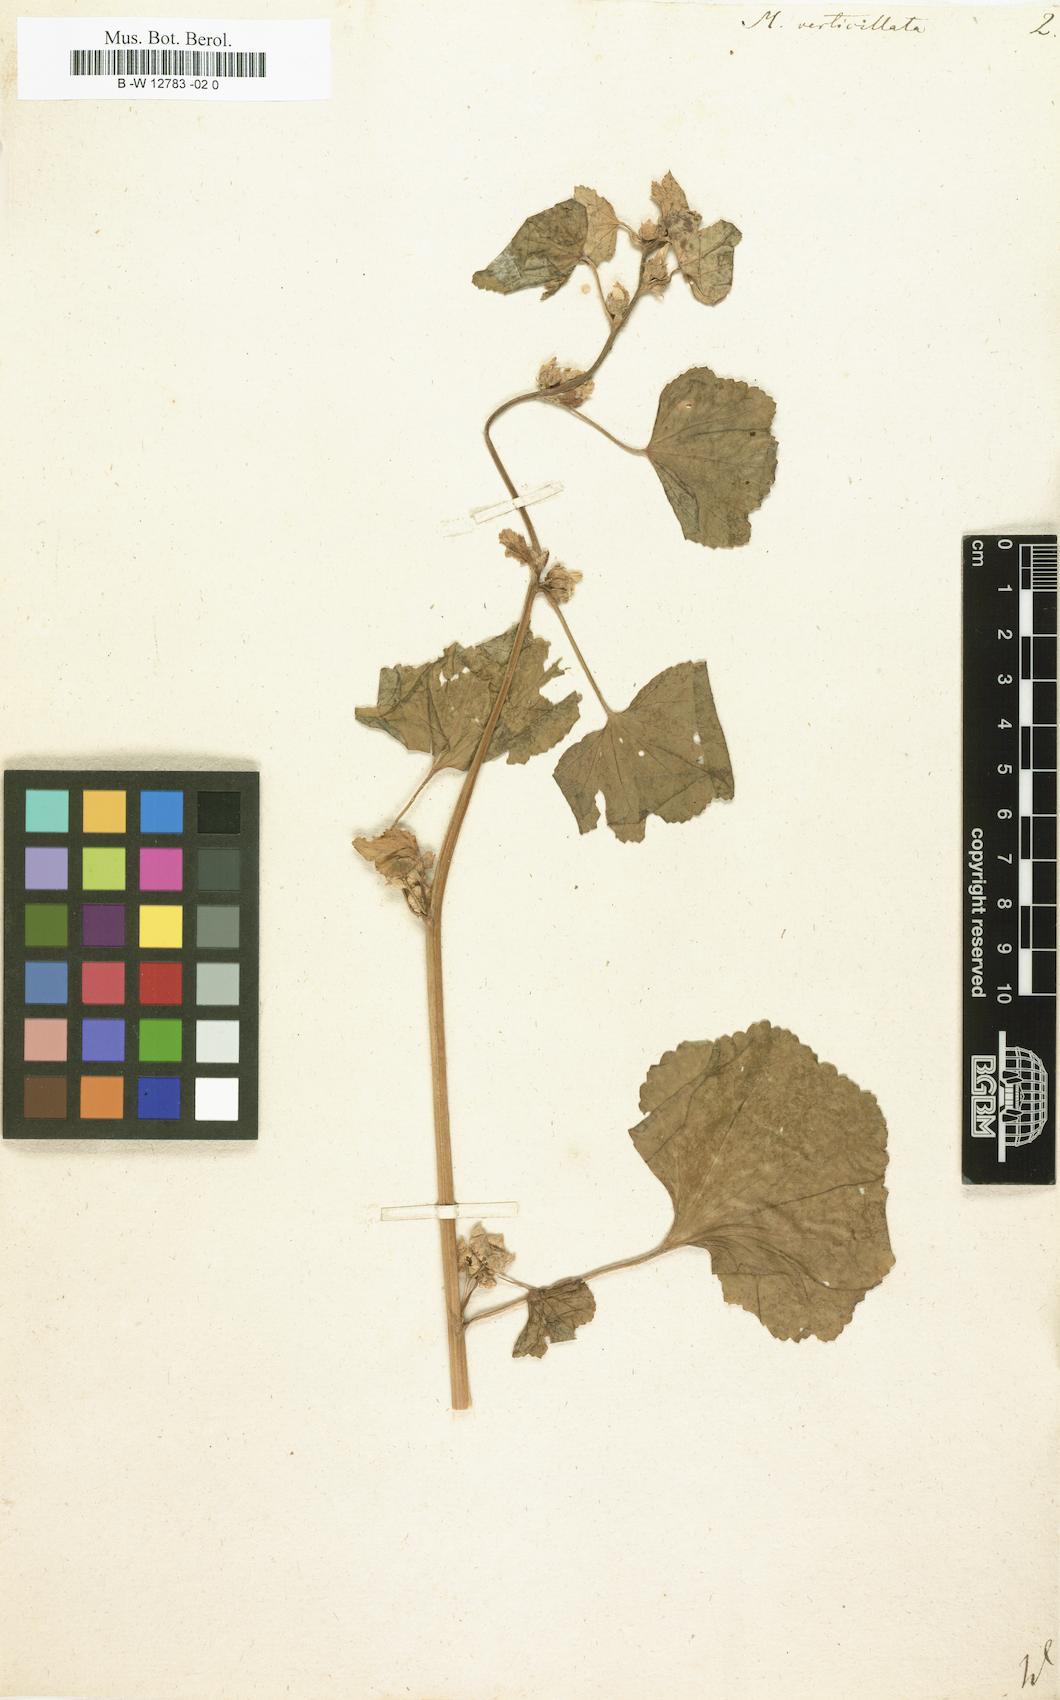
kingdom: Plantae
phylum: Tracheophyta
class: Magnoliopsida
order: Malvales
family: Malvaceae
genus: Malva
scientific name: Malva verticillata
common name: Chinese mallow
